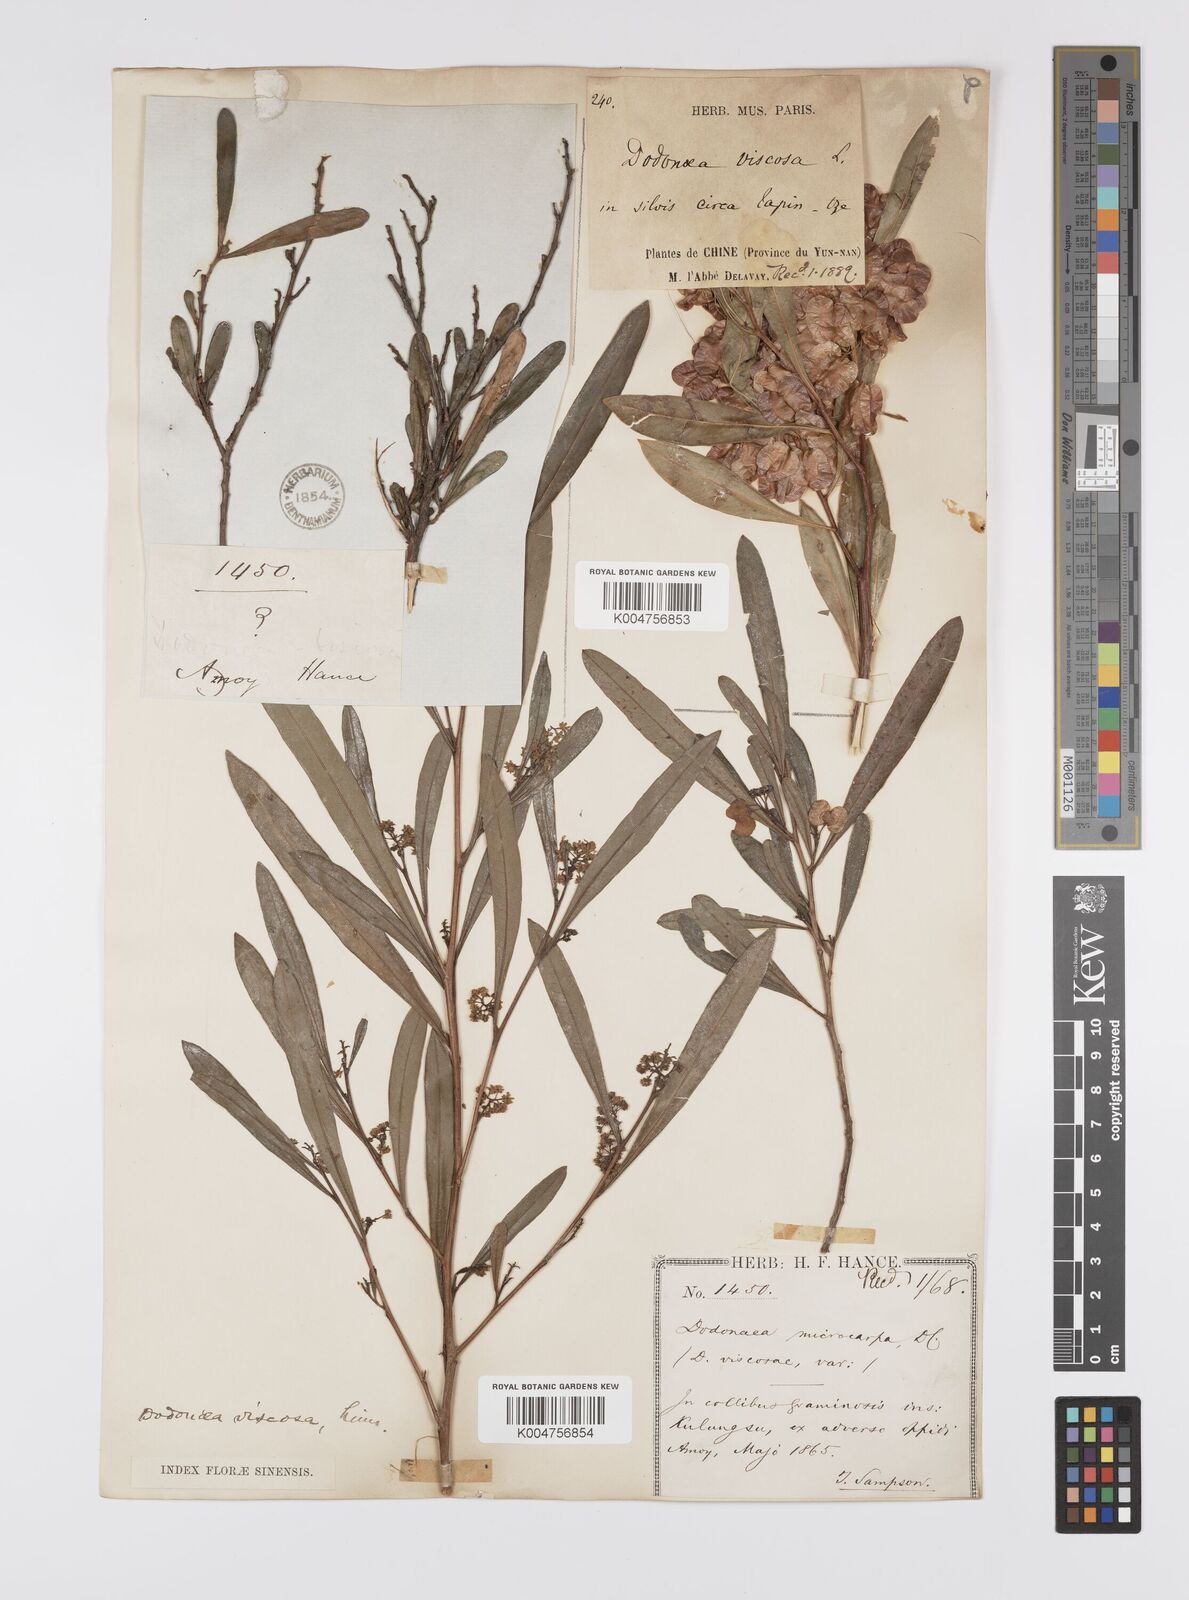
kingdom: Plantae
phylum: Tracheophyta
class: Magnoliopsida
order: Sapindales
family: Sapindaceae
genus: Dodonaea
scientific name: Dodonaea viscosa
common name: Hopbush
